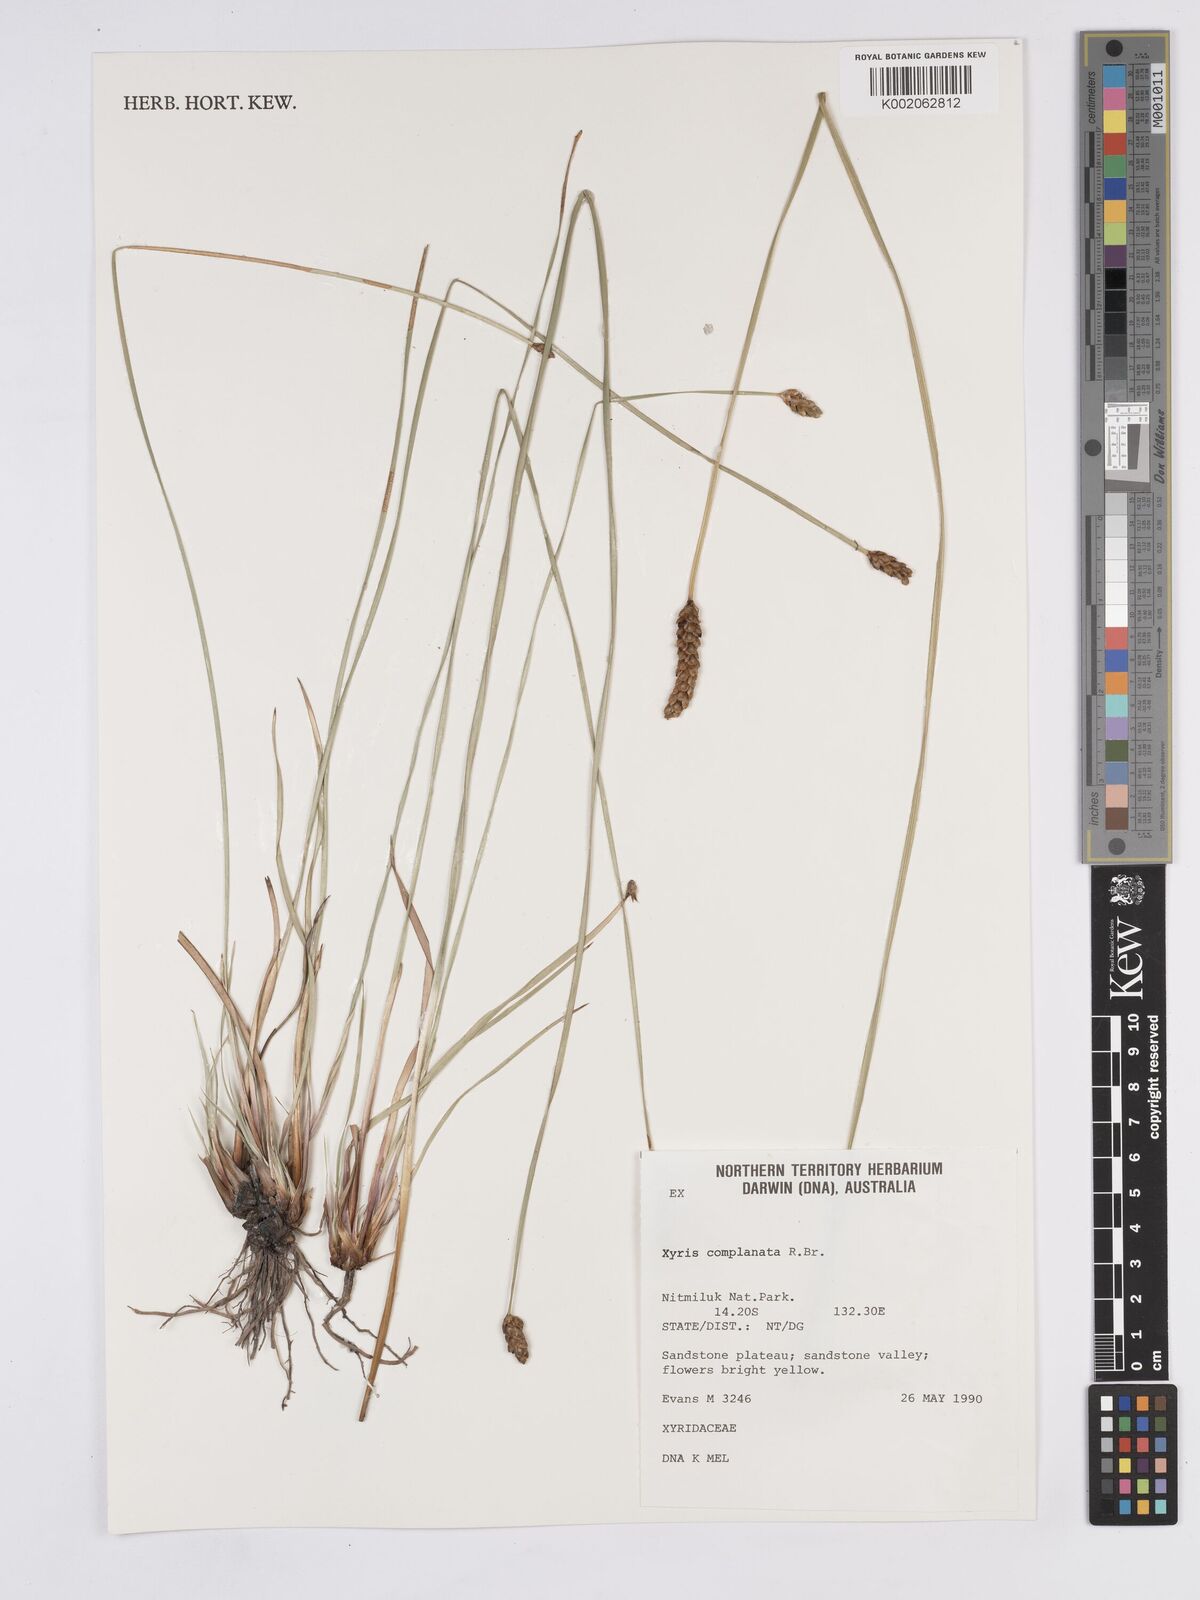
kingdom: Plantae
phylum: Tracheophyta
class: Liliopsida
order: Poales
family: Xyridaceae
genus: Xyris
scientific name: Xyris complanata
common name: Hawai'i yelloweyed grass
